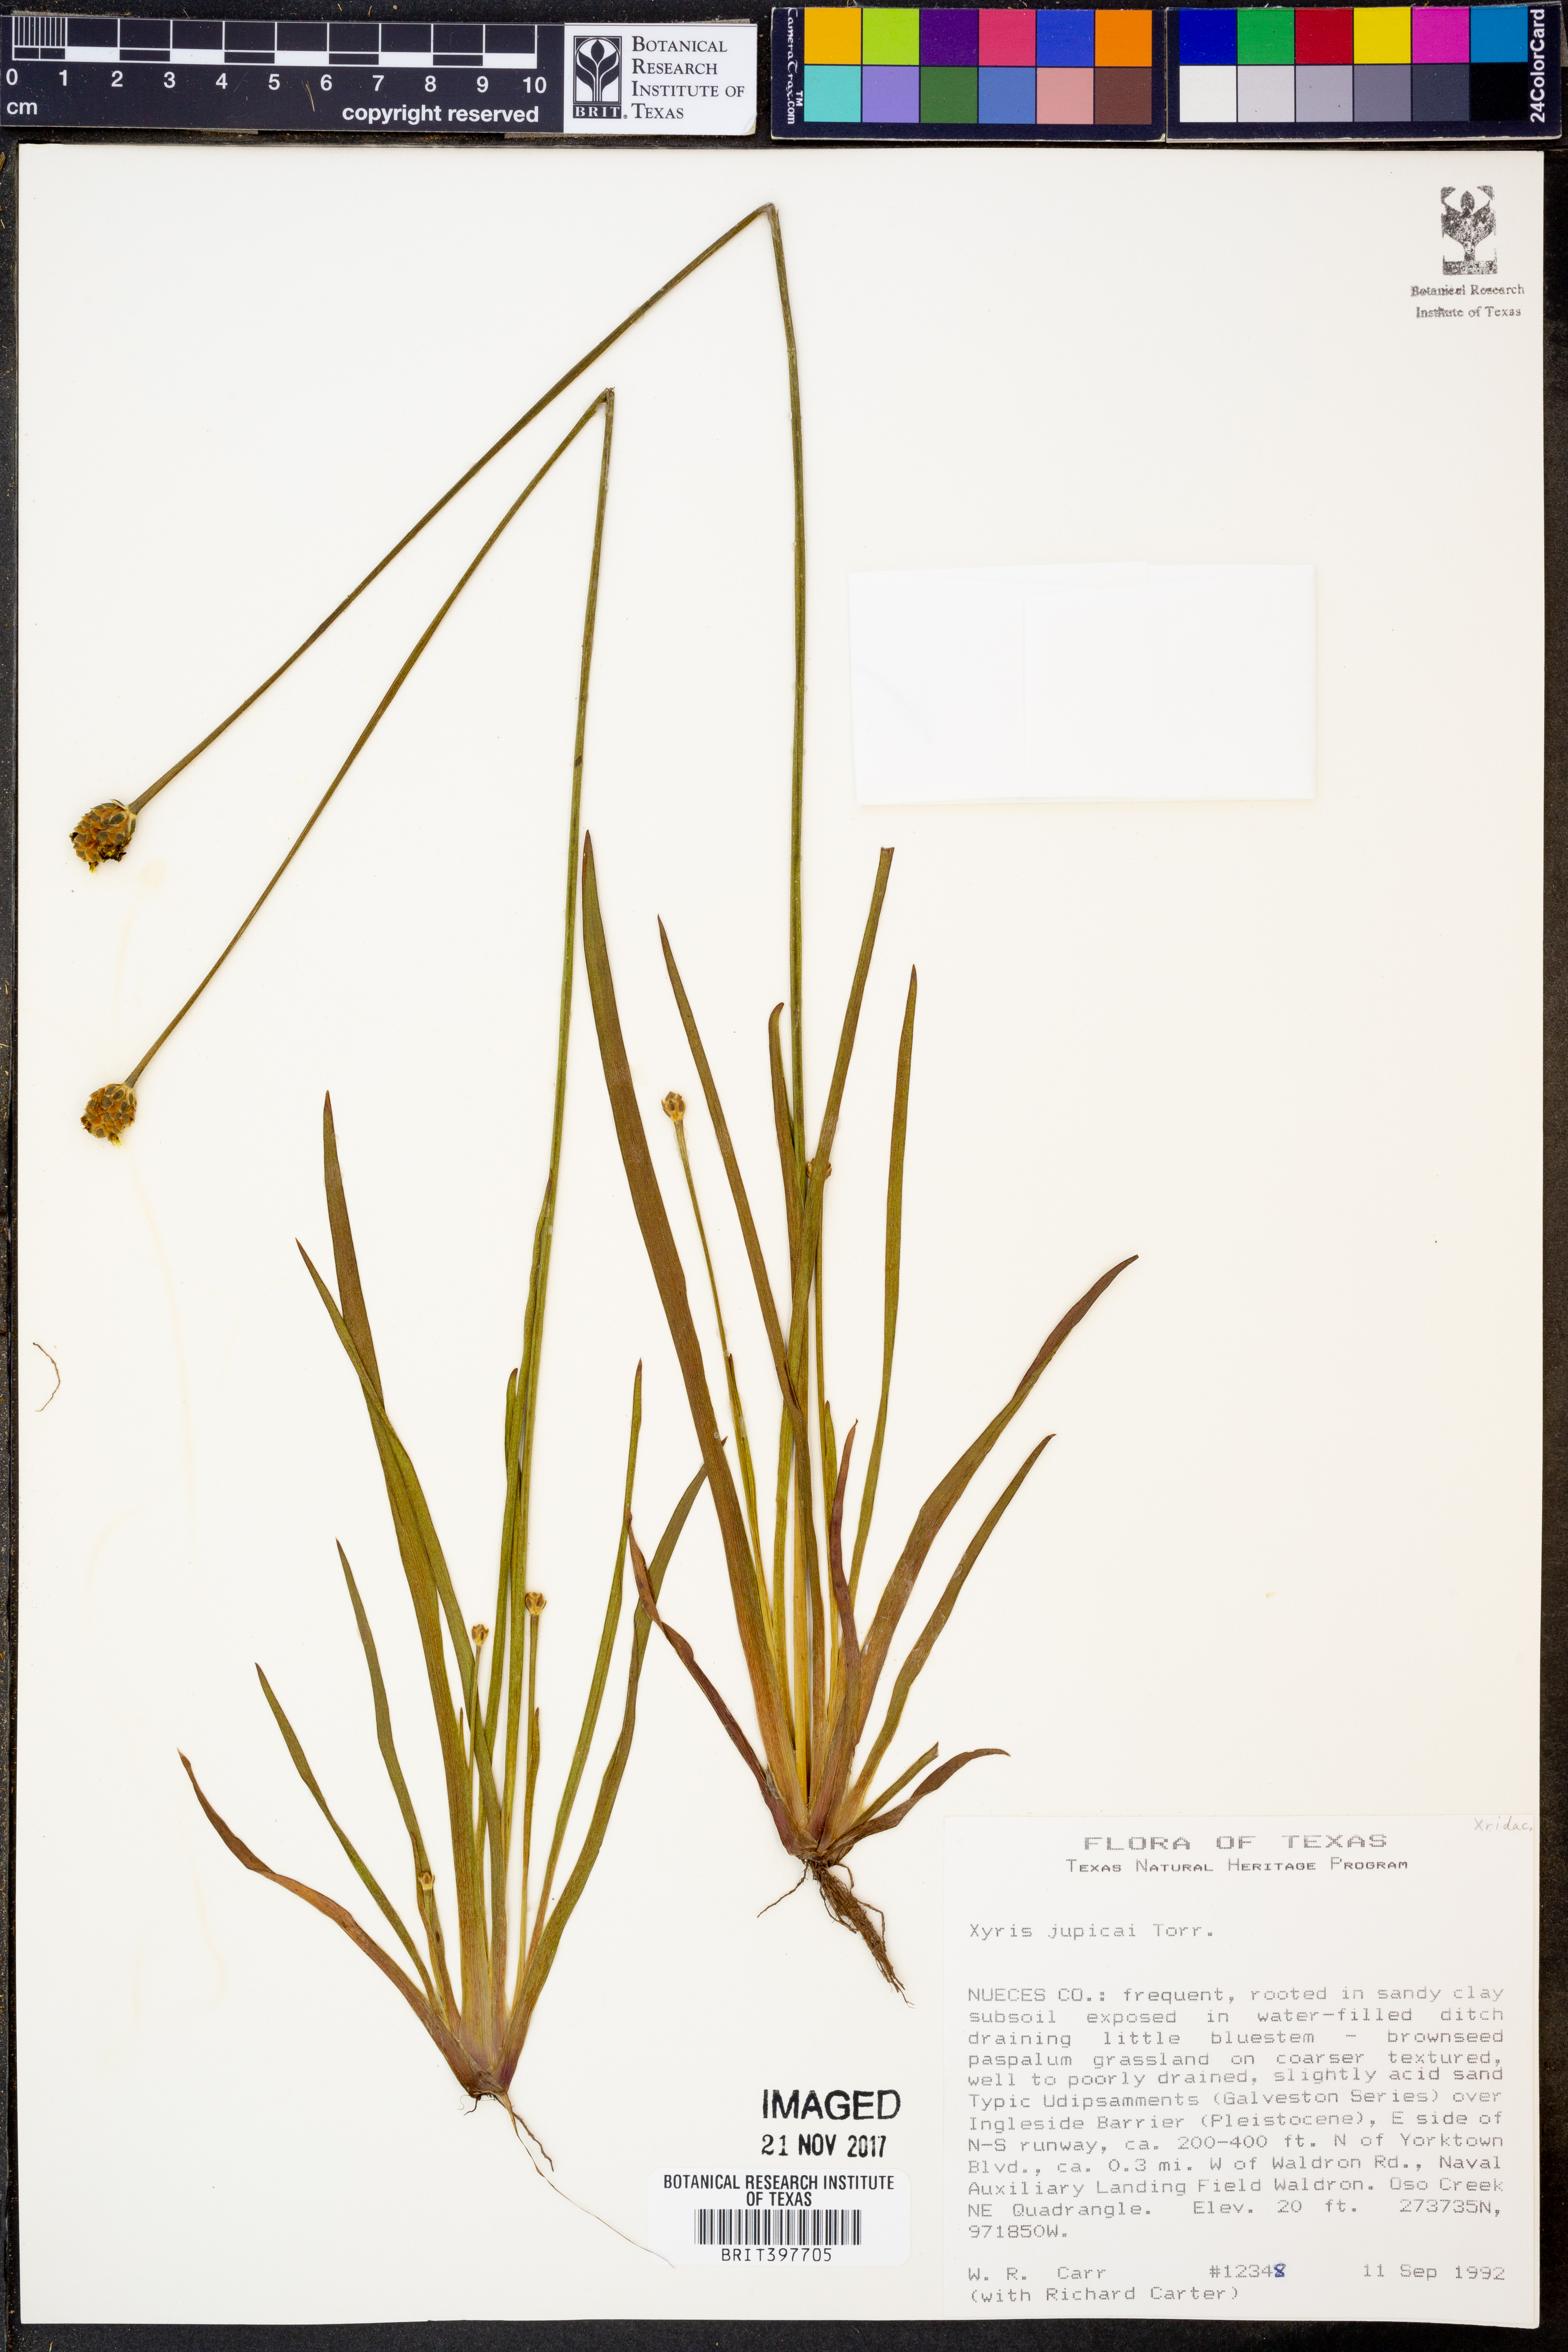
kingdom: Plantae
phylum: Tracheophyta
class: Liliopsida
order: Poales
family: Xyridaceae
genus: Xyris
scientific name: Xyris jupicai
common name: Richard's yelloweyed grass
